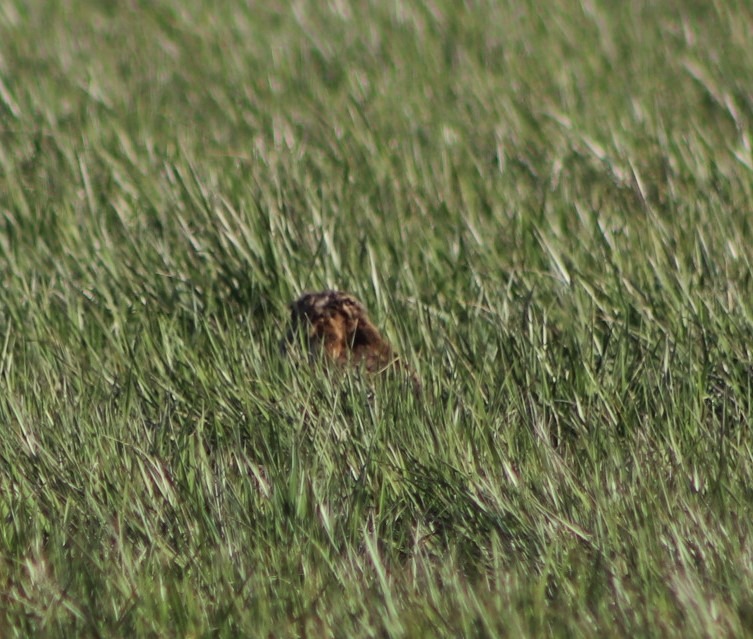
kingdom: Animalia
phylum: Chordata
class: Mammalia
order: Lagomorpha
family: Leporidae
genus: Lepus
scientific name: Lepus europaeus
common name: Hare
